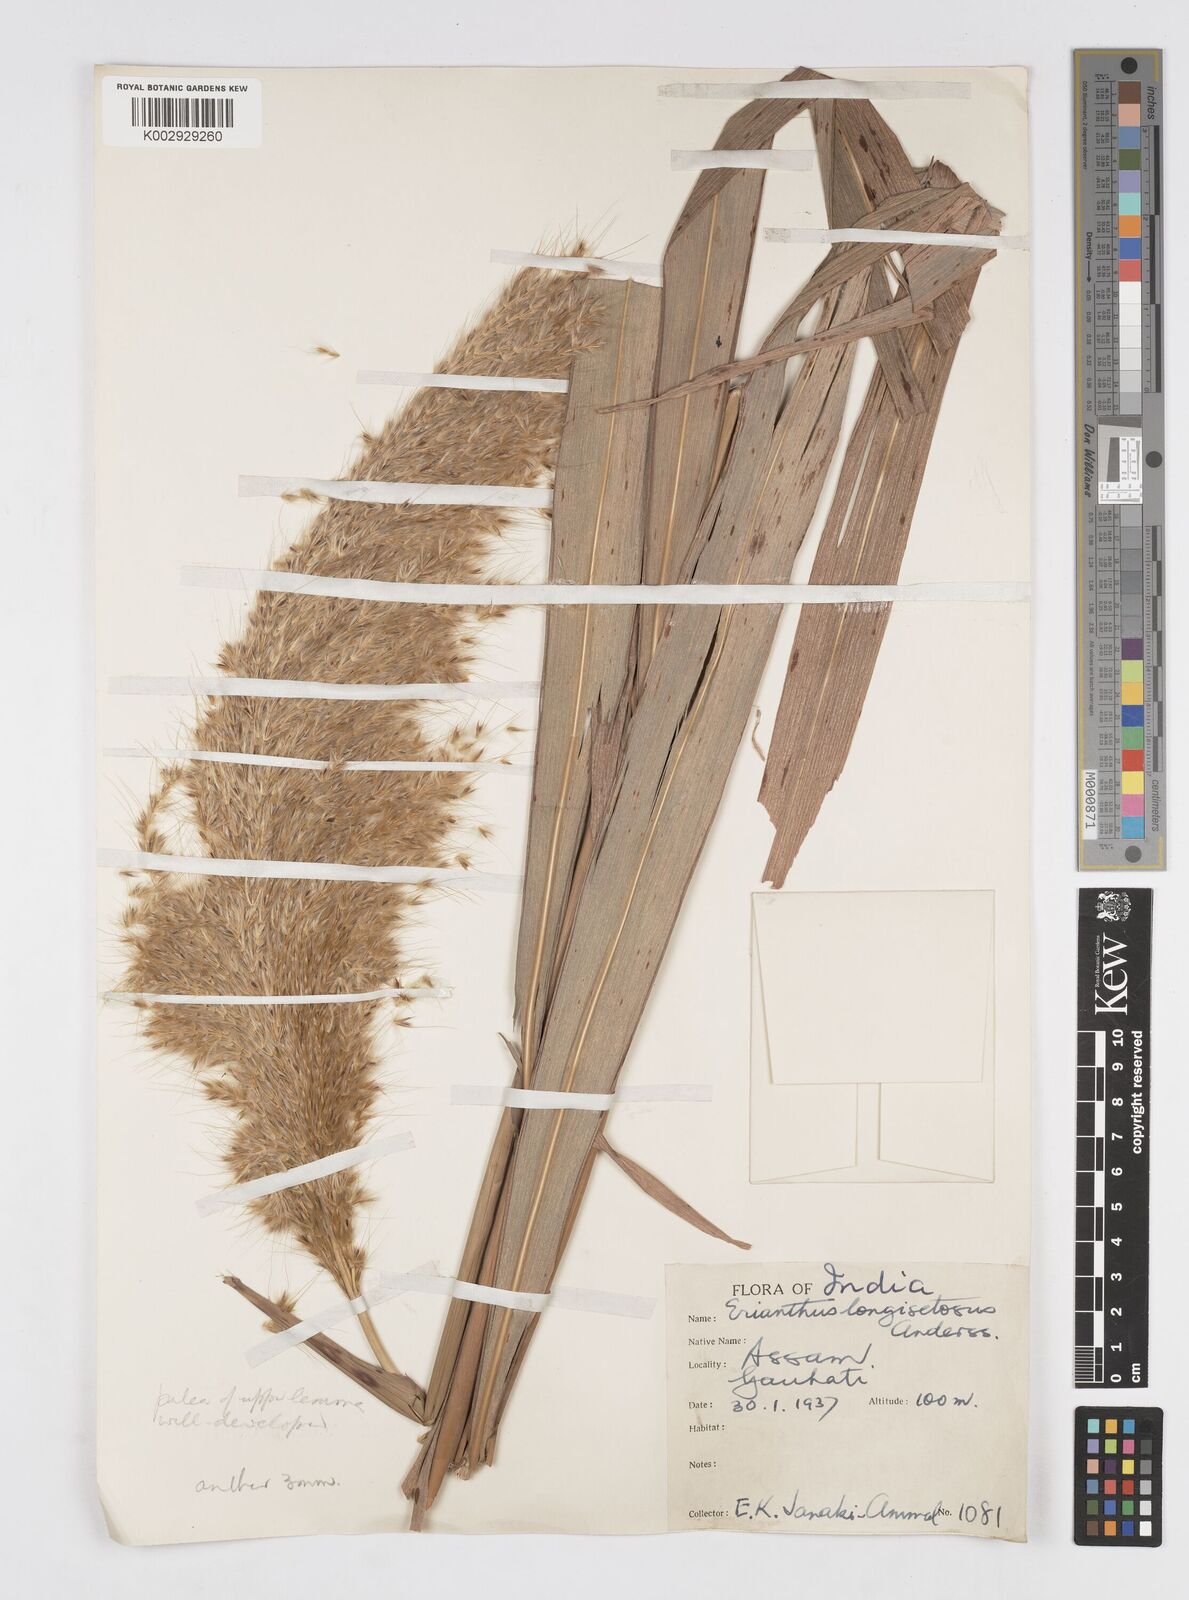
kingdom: Plantae
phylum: Tracheophyta
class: Liliopsida
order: Poales
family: Poaceae
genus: Saccharum
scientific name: Saccharum
